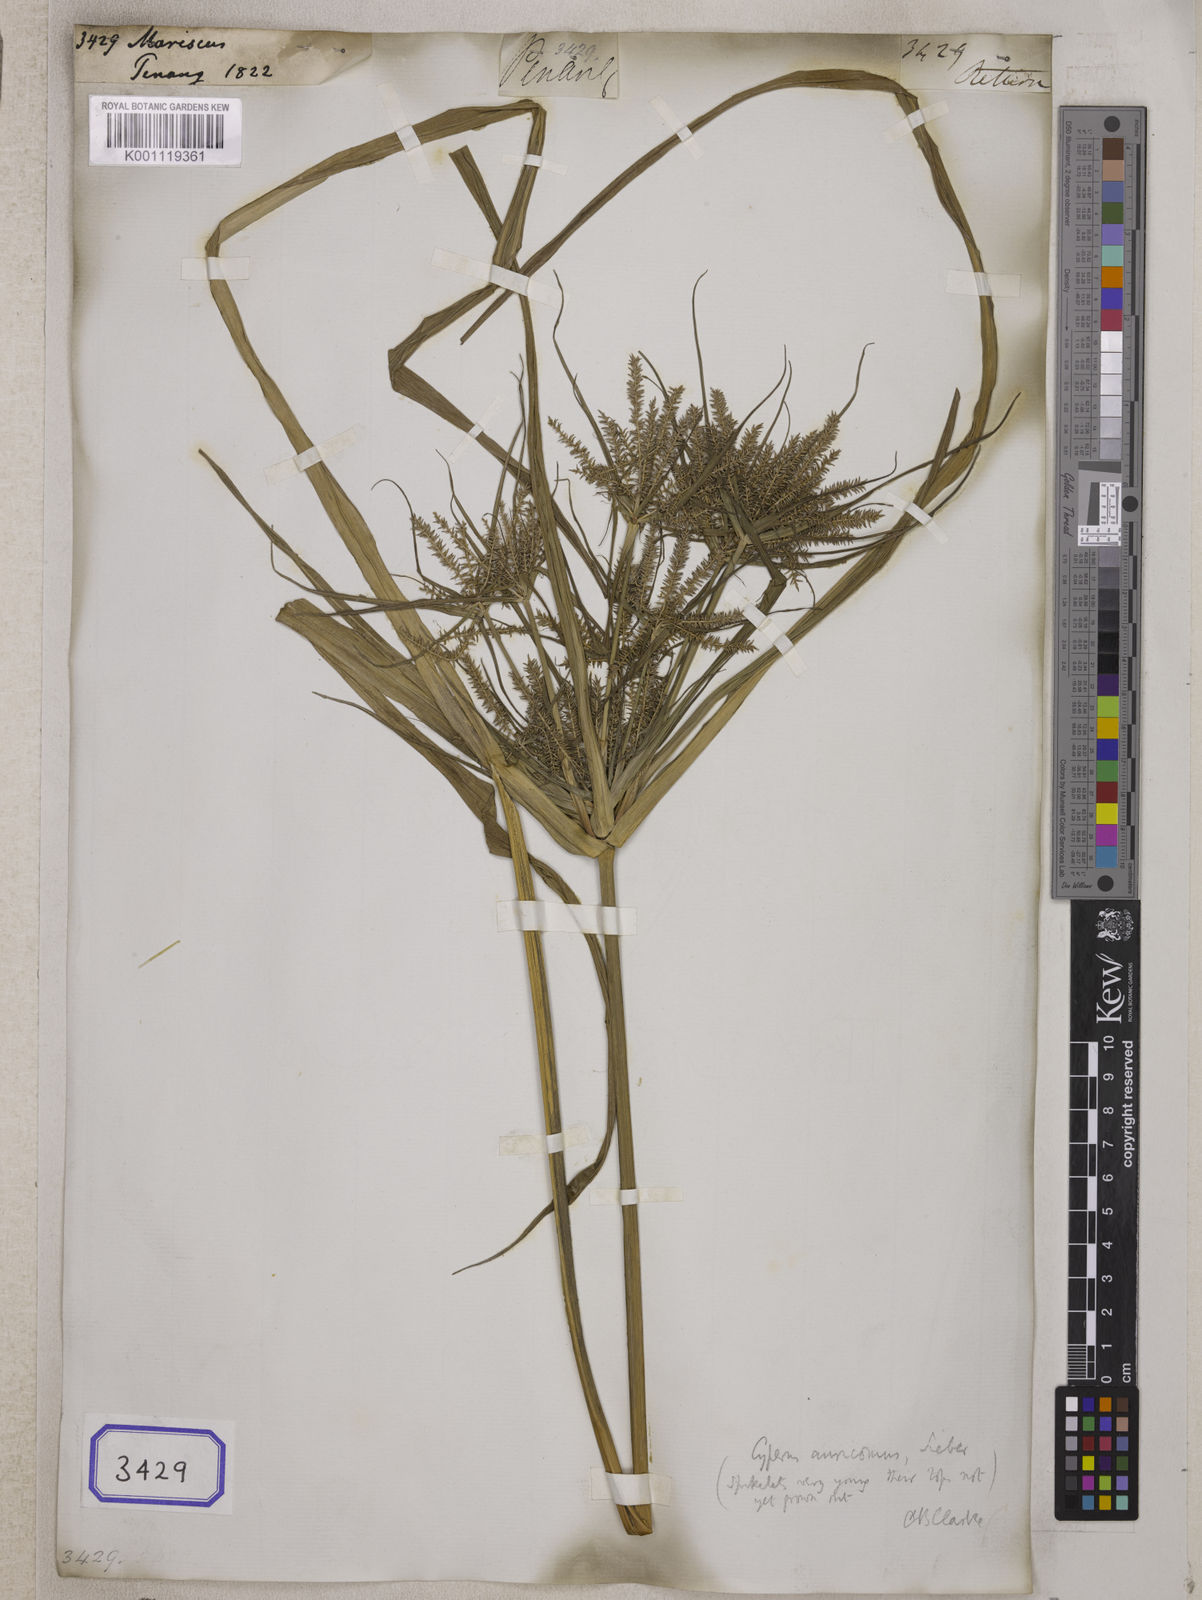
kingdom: Plantae
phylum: Tracheophyta
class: Liliopsida
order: Poales
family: Cyperaceae
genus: Mariscus
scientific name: Mariscus
